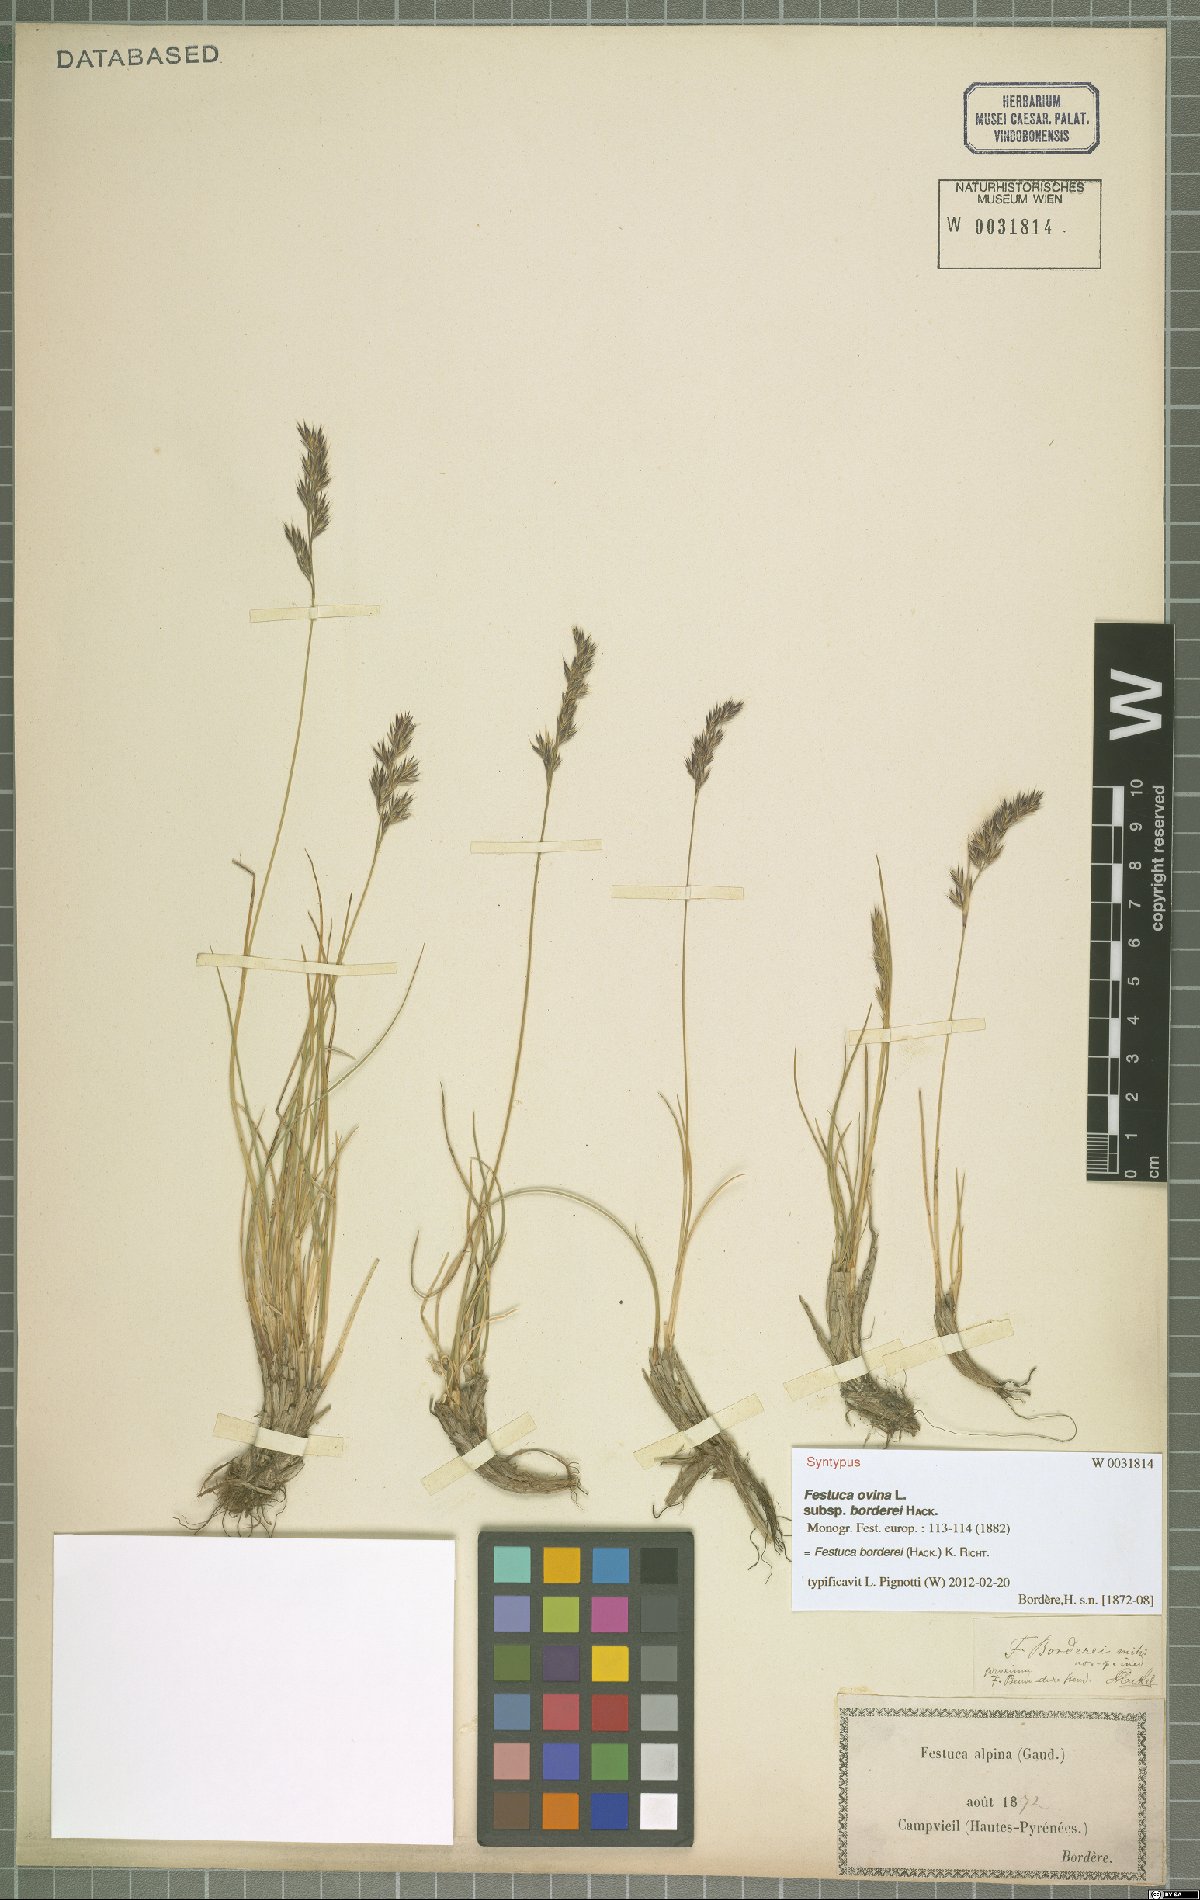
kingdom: Plantae
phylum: Tracheophyta
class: Liliopsida
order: Poales
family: Poaceae
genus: Festuca
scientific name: Festuca borderii
